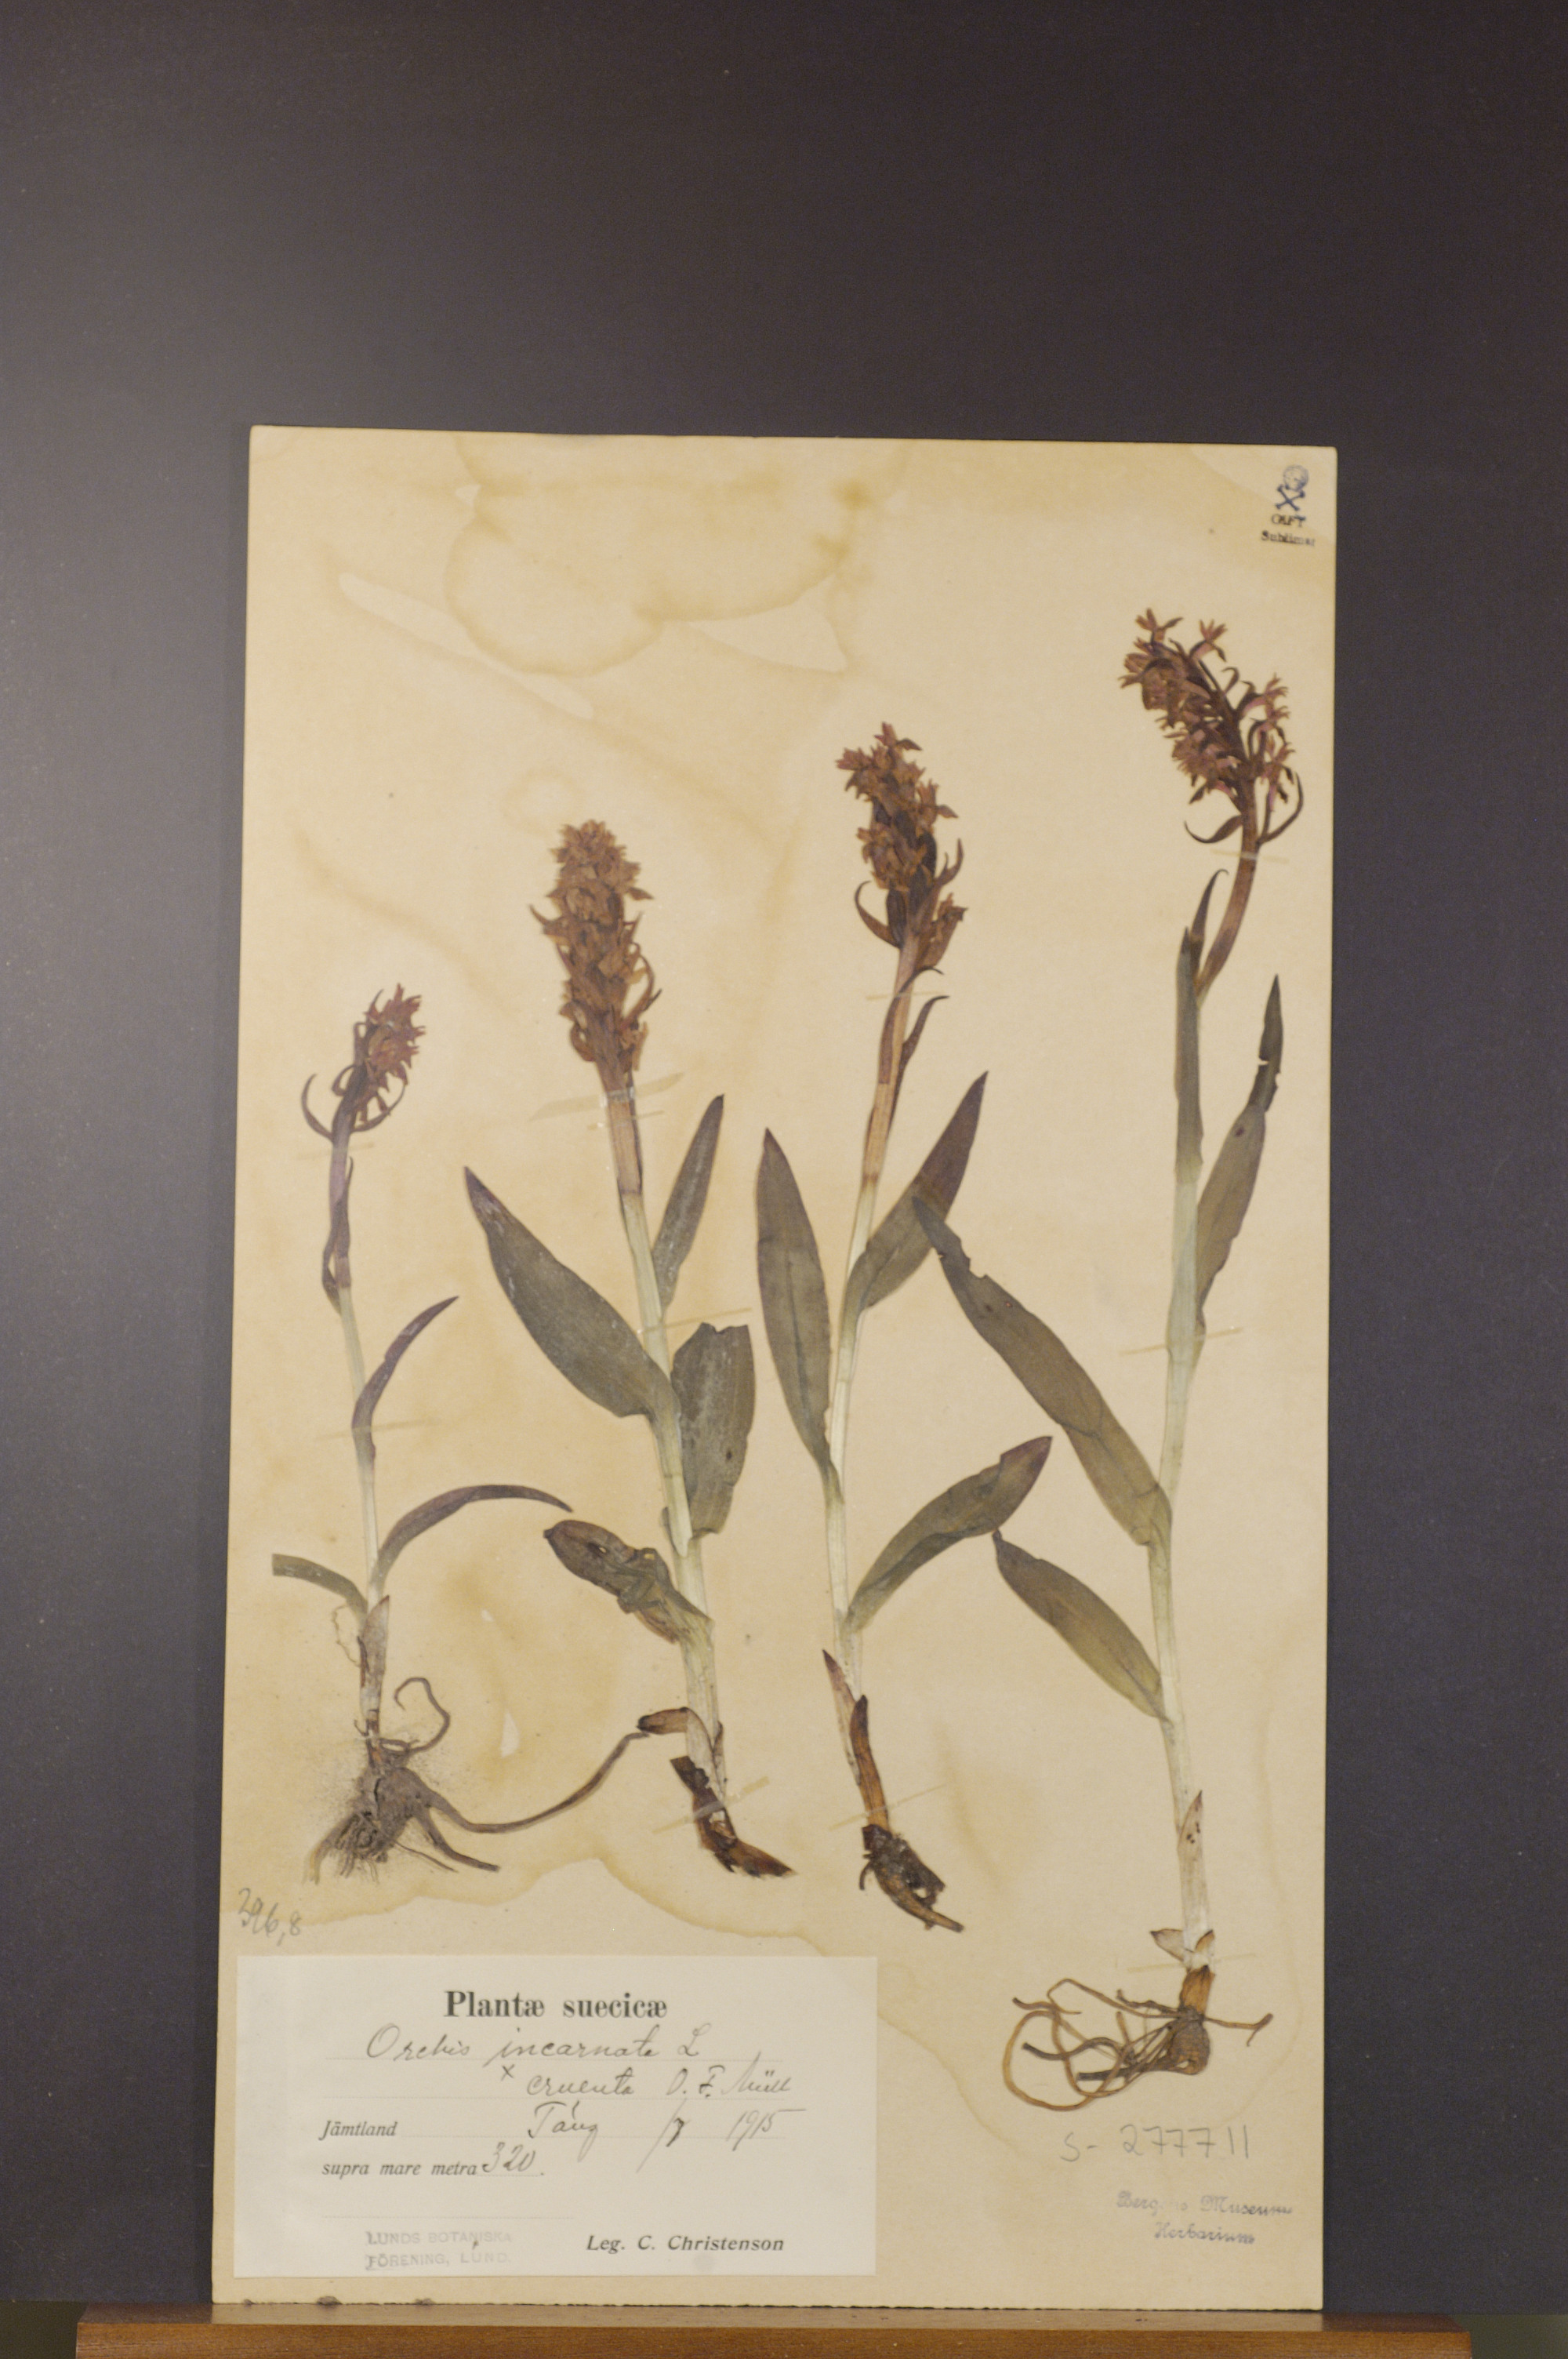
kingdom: Plantae
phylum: Tracheophyta
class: Liliopsida
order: Asparagales
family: Orchidaceae
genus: Dactylorhiza
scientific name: Dactylorhiza incarnata
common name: Early marsh-orchid
